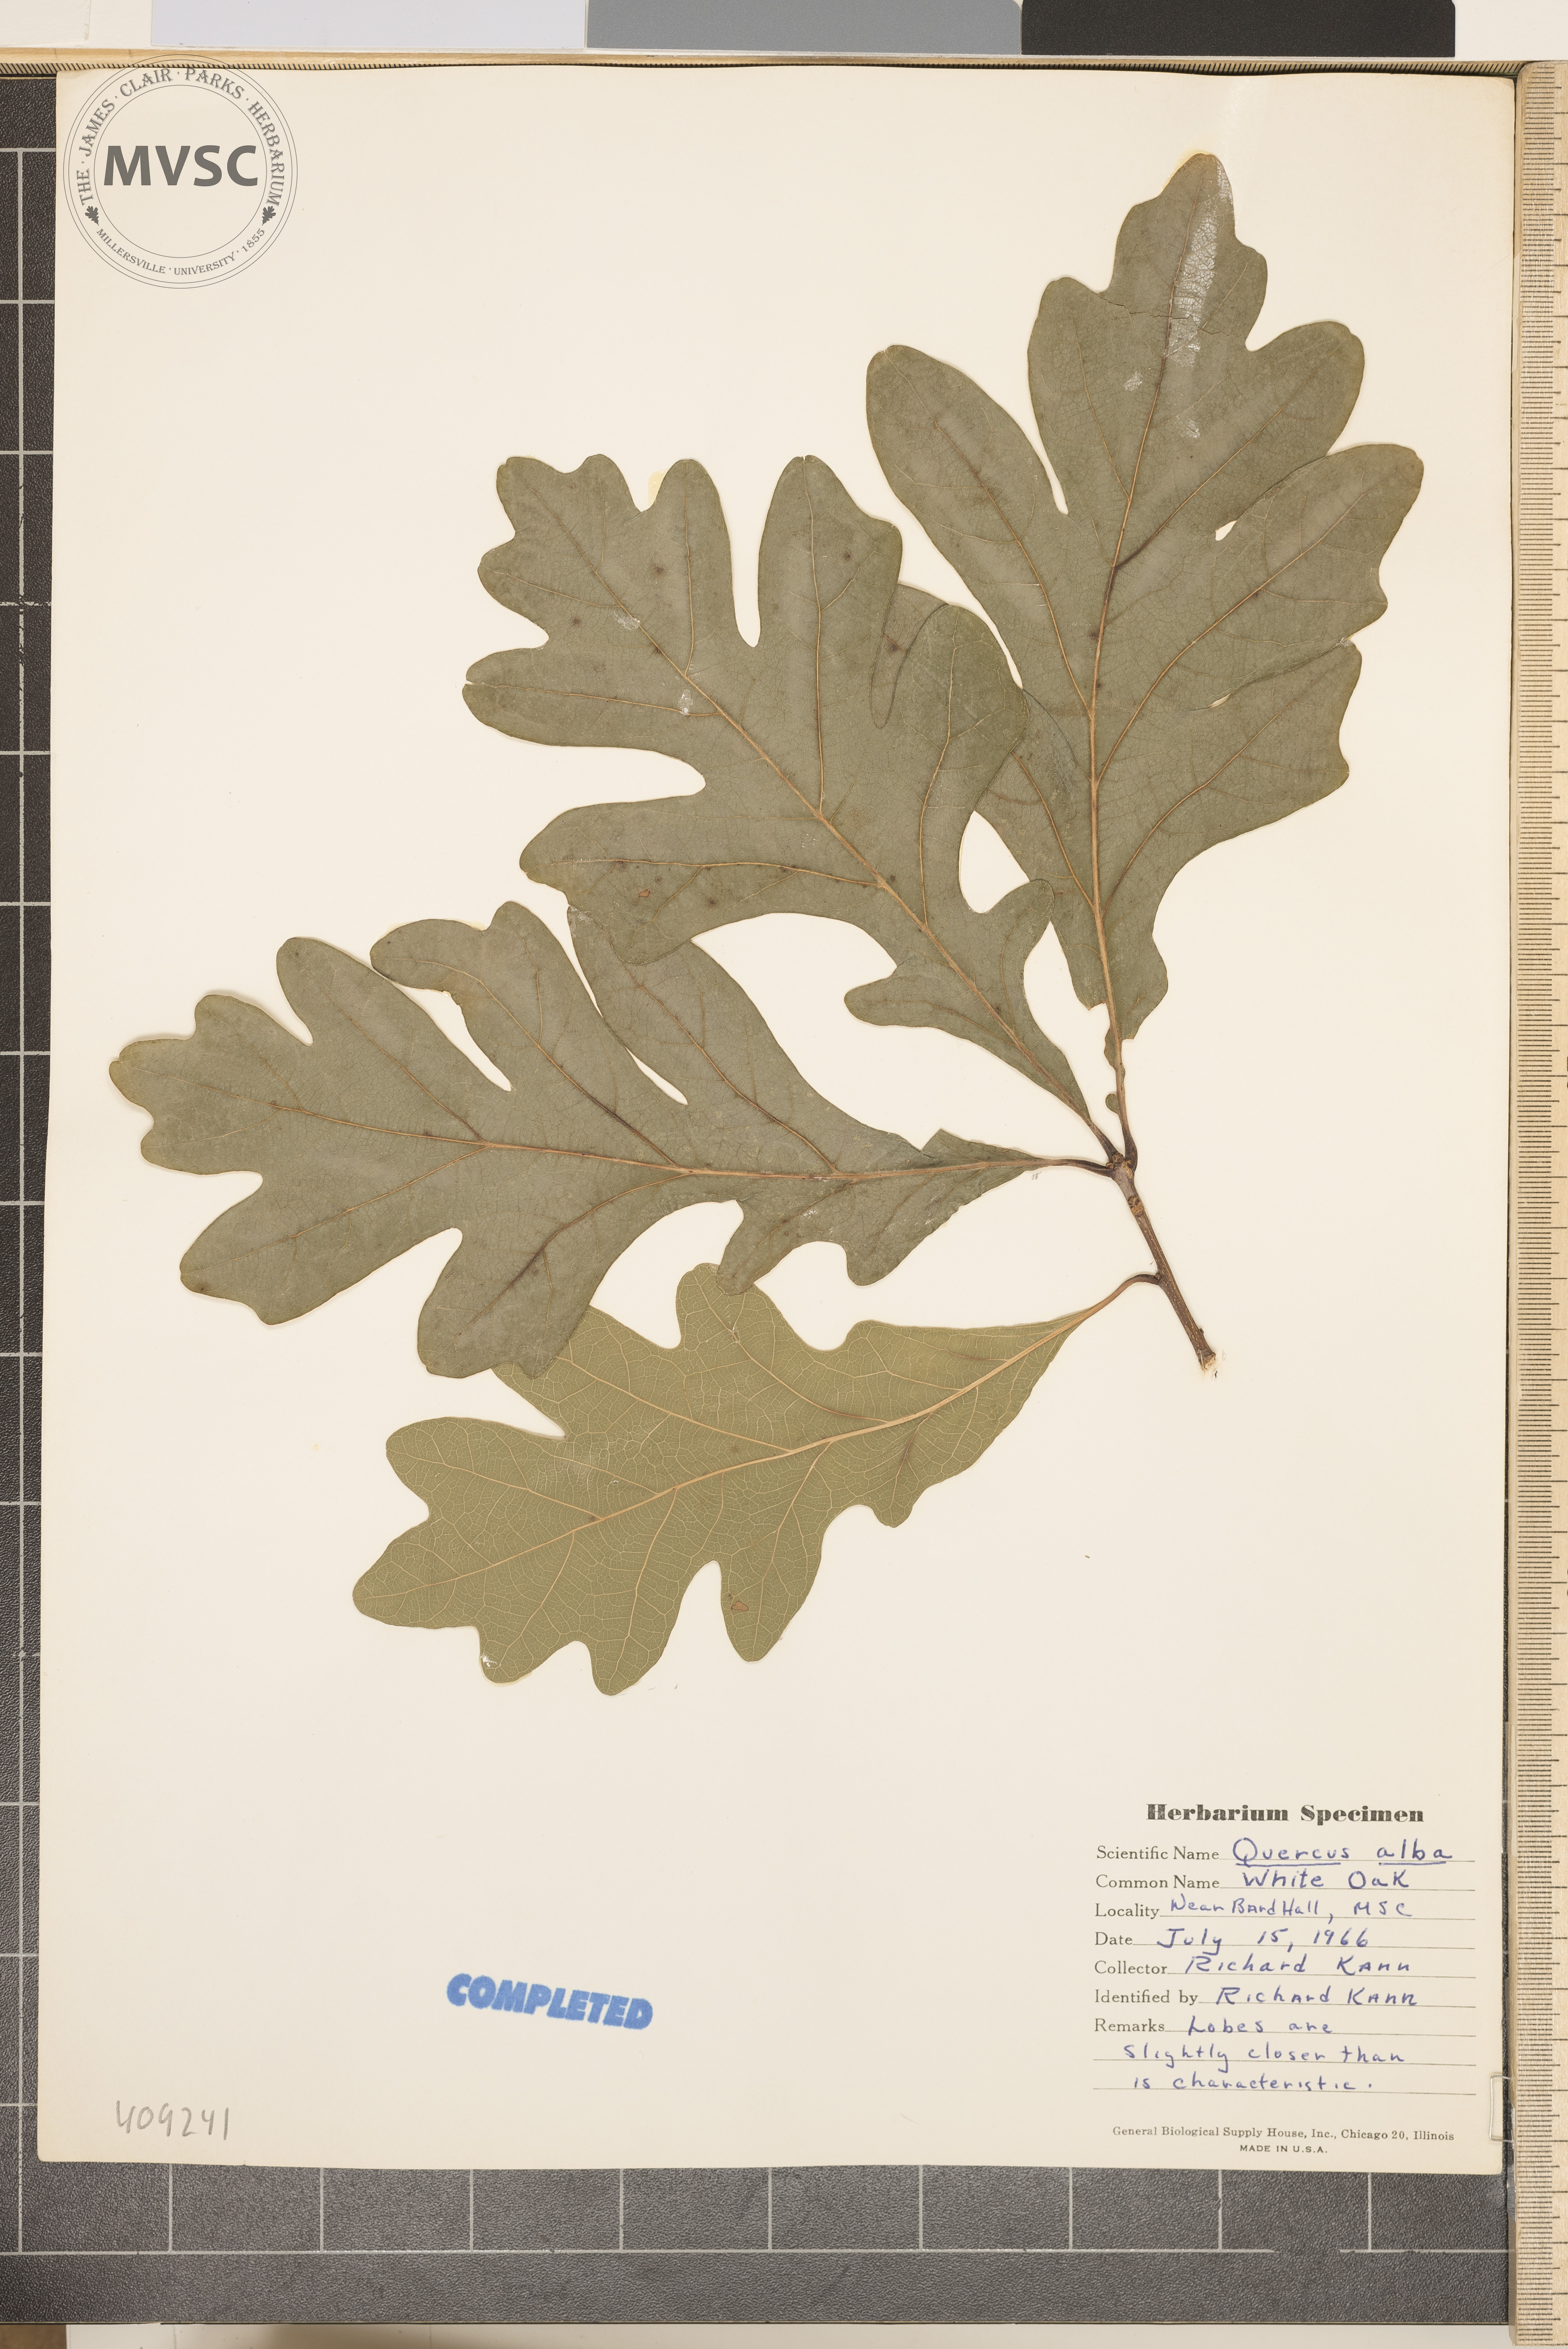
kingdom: Plantae
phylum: Tracheophyta
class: Magnoliopsida
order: Fagales
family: Fagaceae
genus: Quercus
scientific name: Quercus alba
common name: White oak
